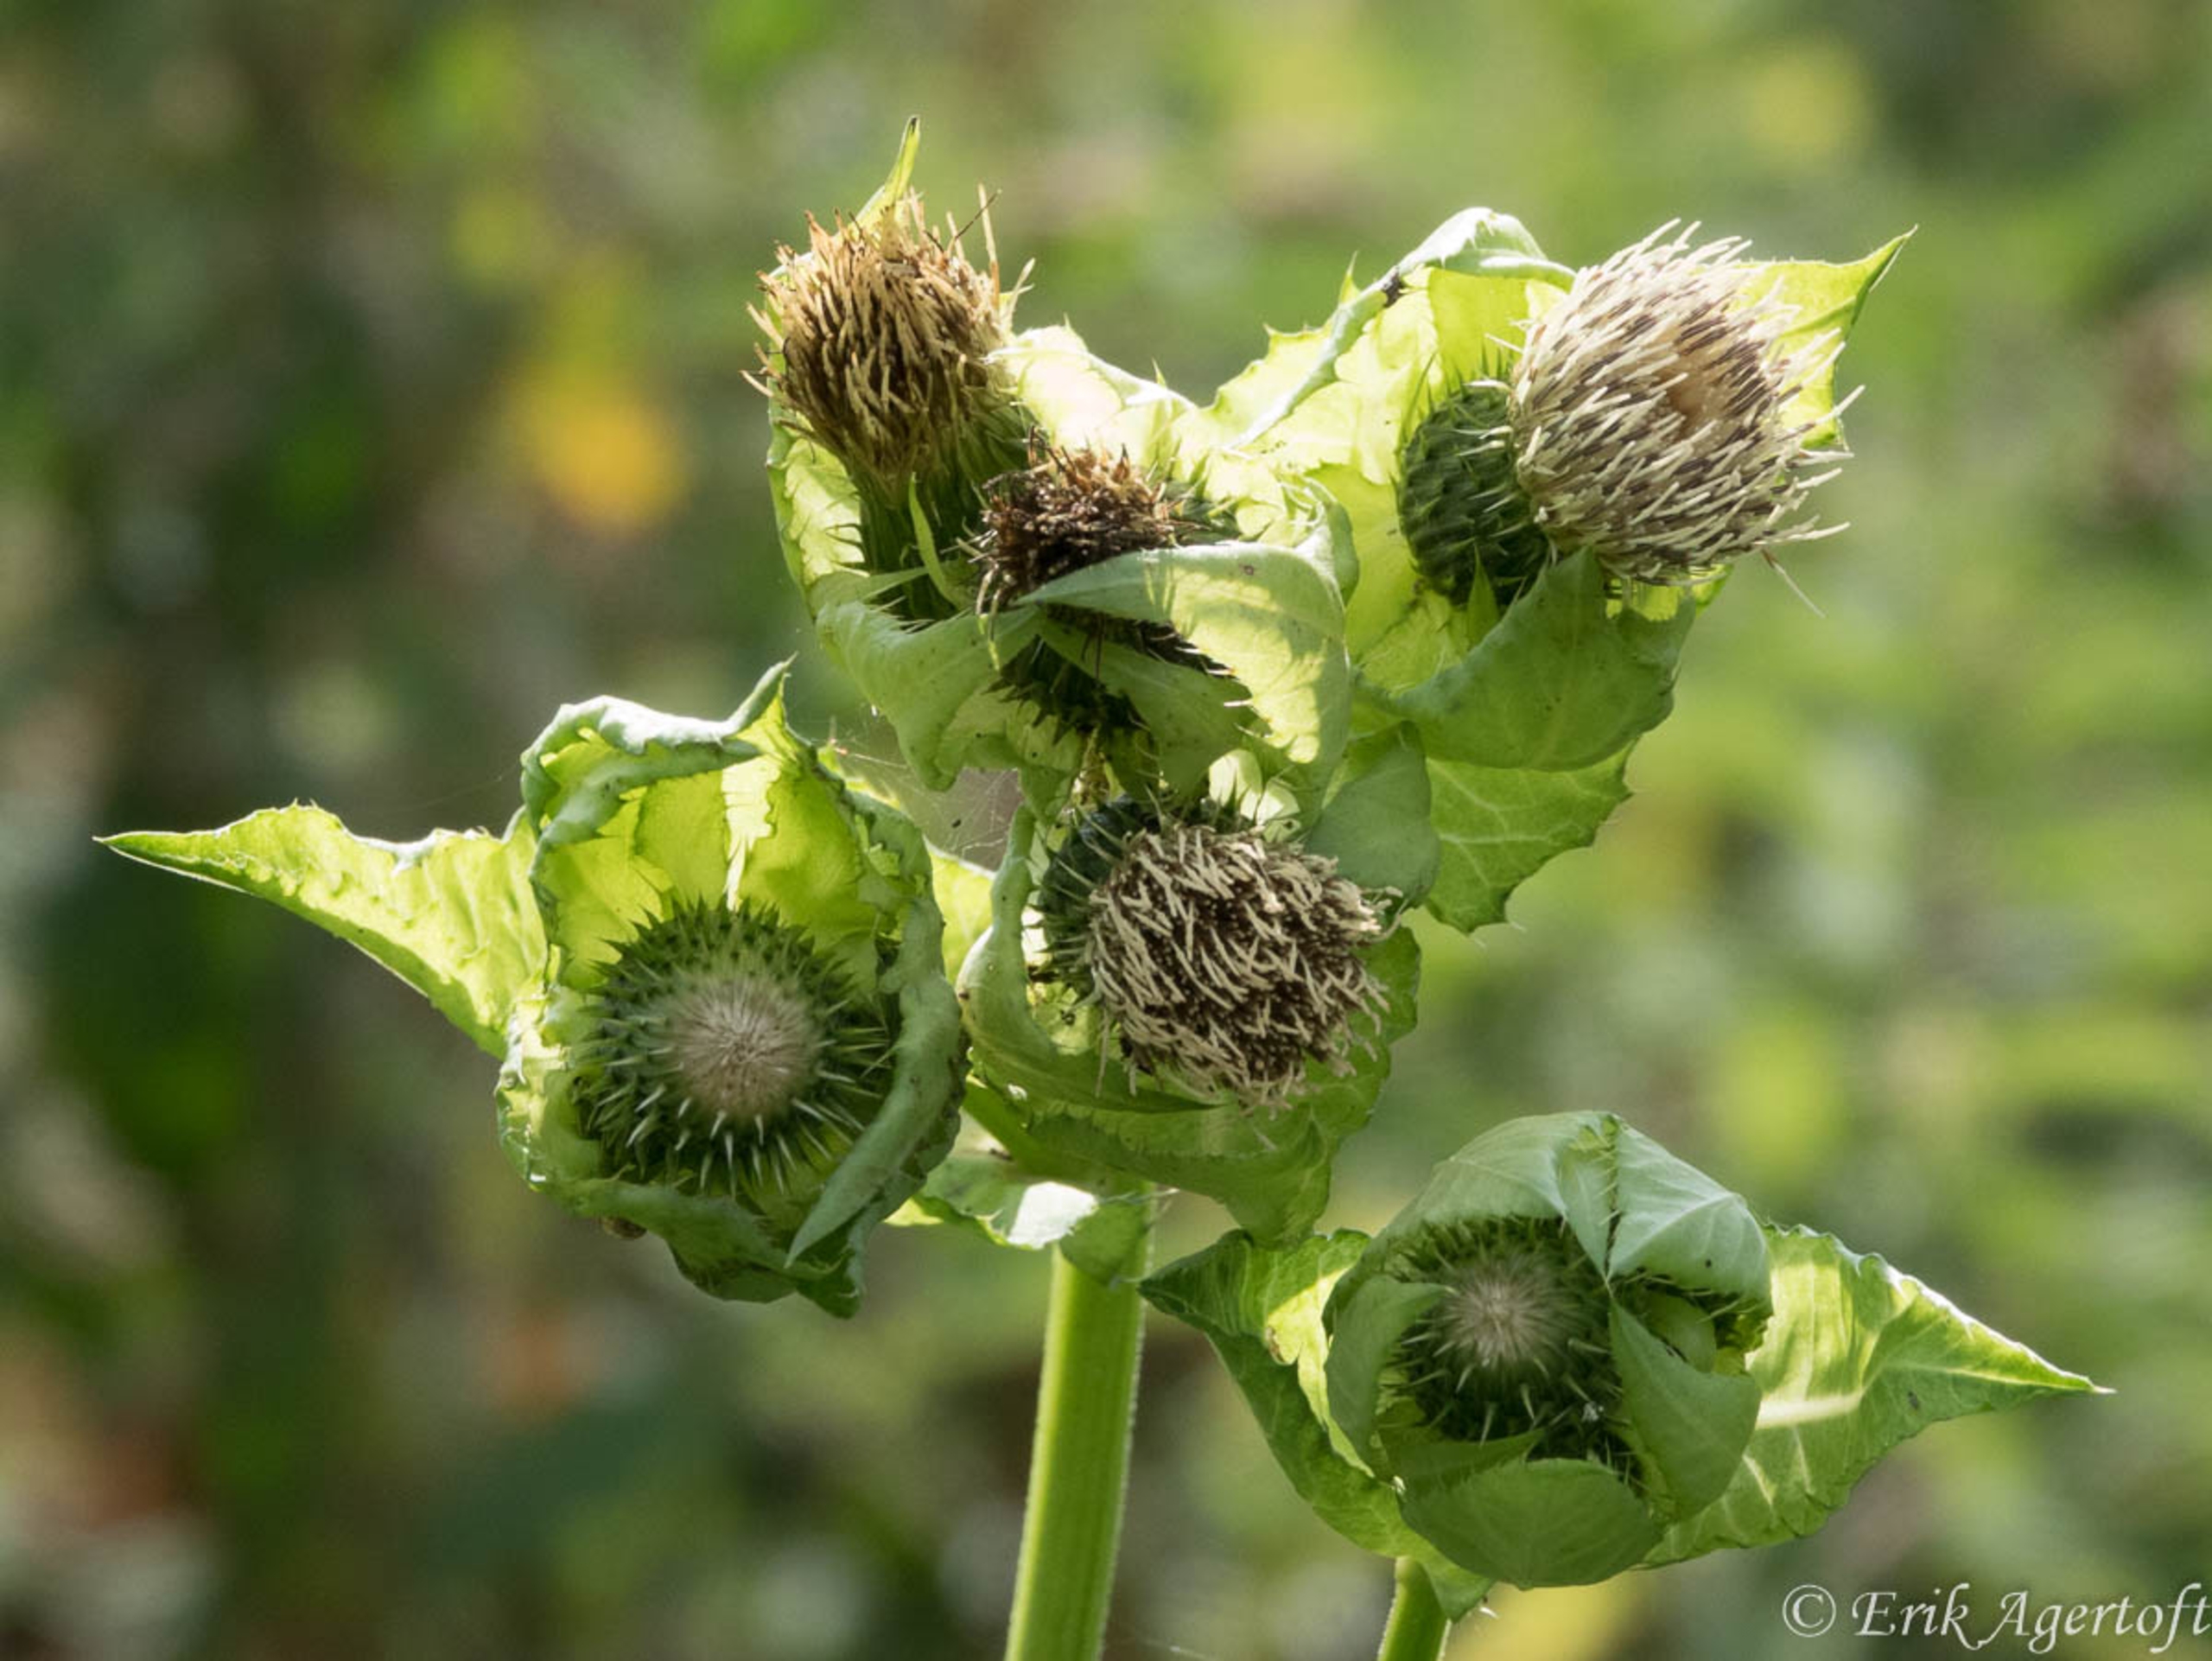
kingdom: Plantae
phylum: Tracheophyta
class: Magnoliopsida
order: Asterales
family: Asteraceae
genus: Cirsium
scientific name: Cirsium oleraceum
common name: Kål-tidsel
